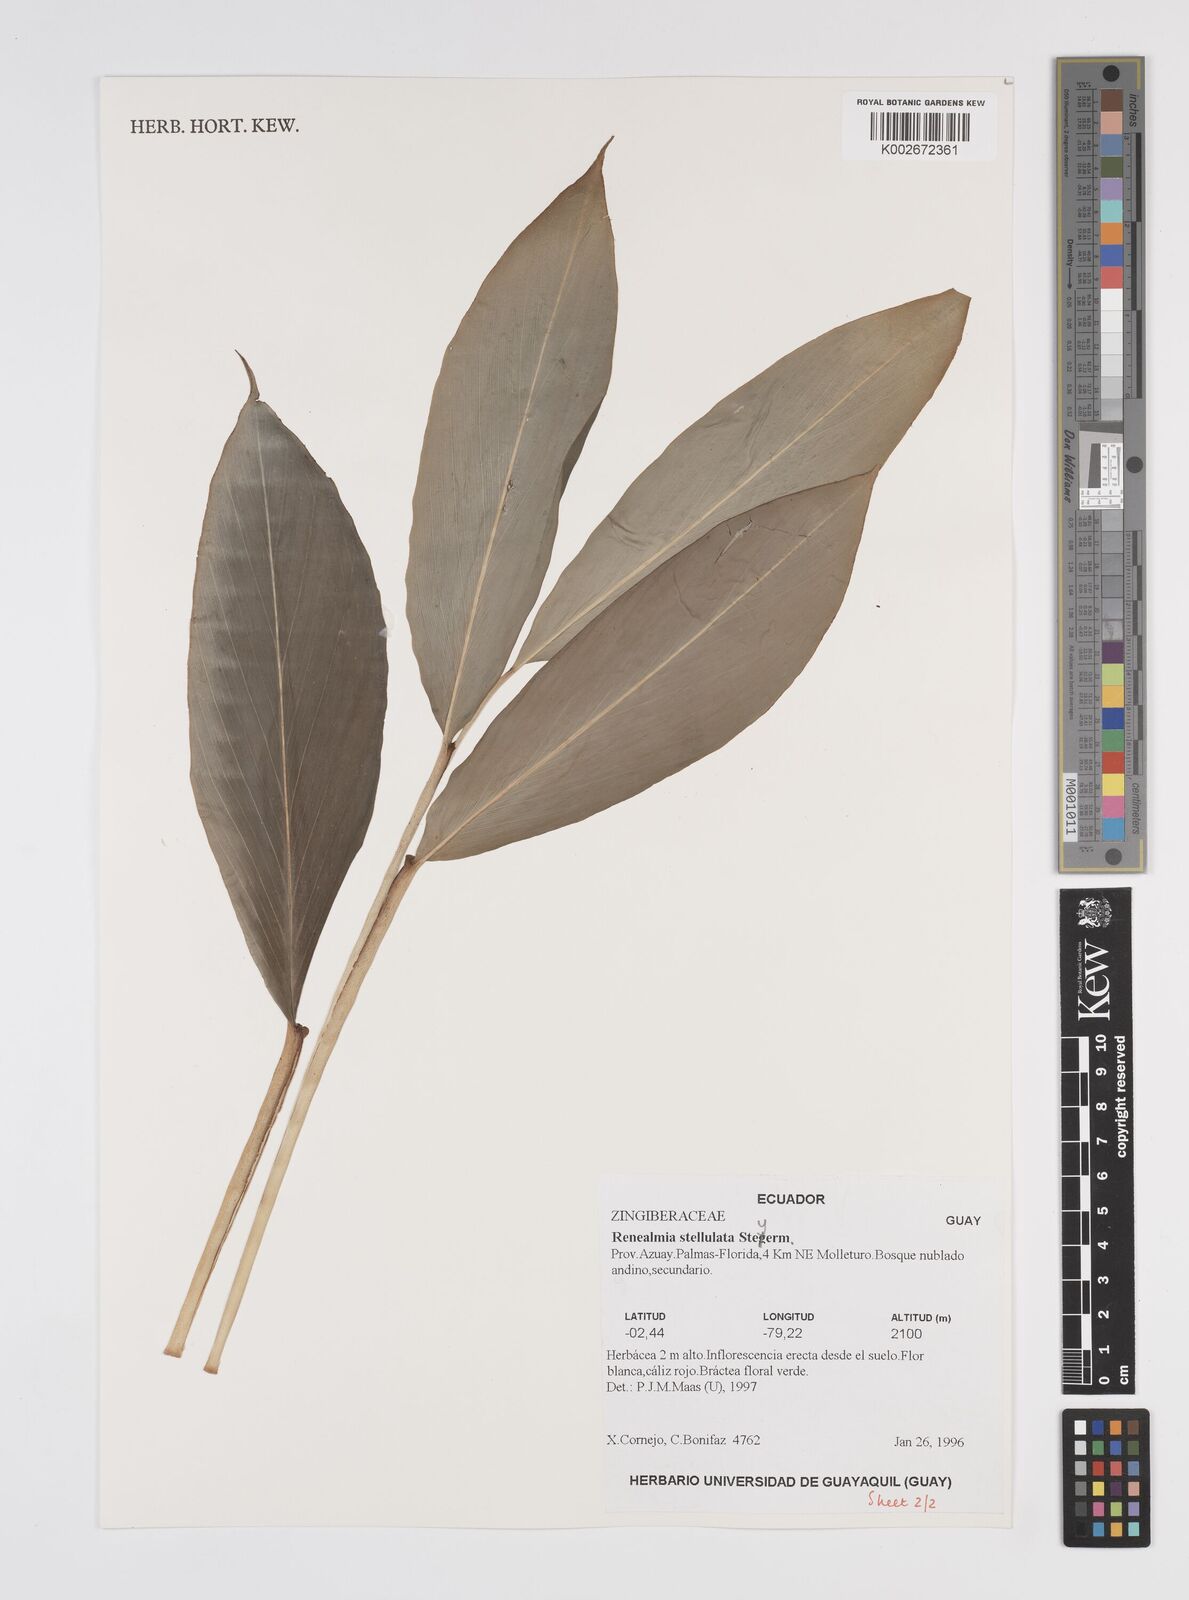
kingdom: Plantae
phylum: Tracheophyta
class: Liliopsida
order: Zingiberales
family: Zingiberaceae
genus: Renealmia
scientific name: Renealmia stellulata
